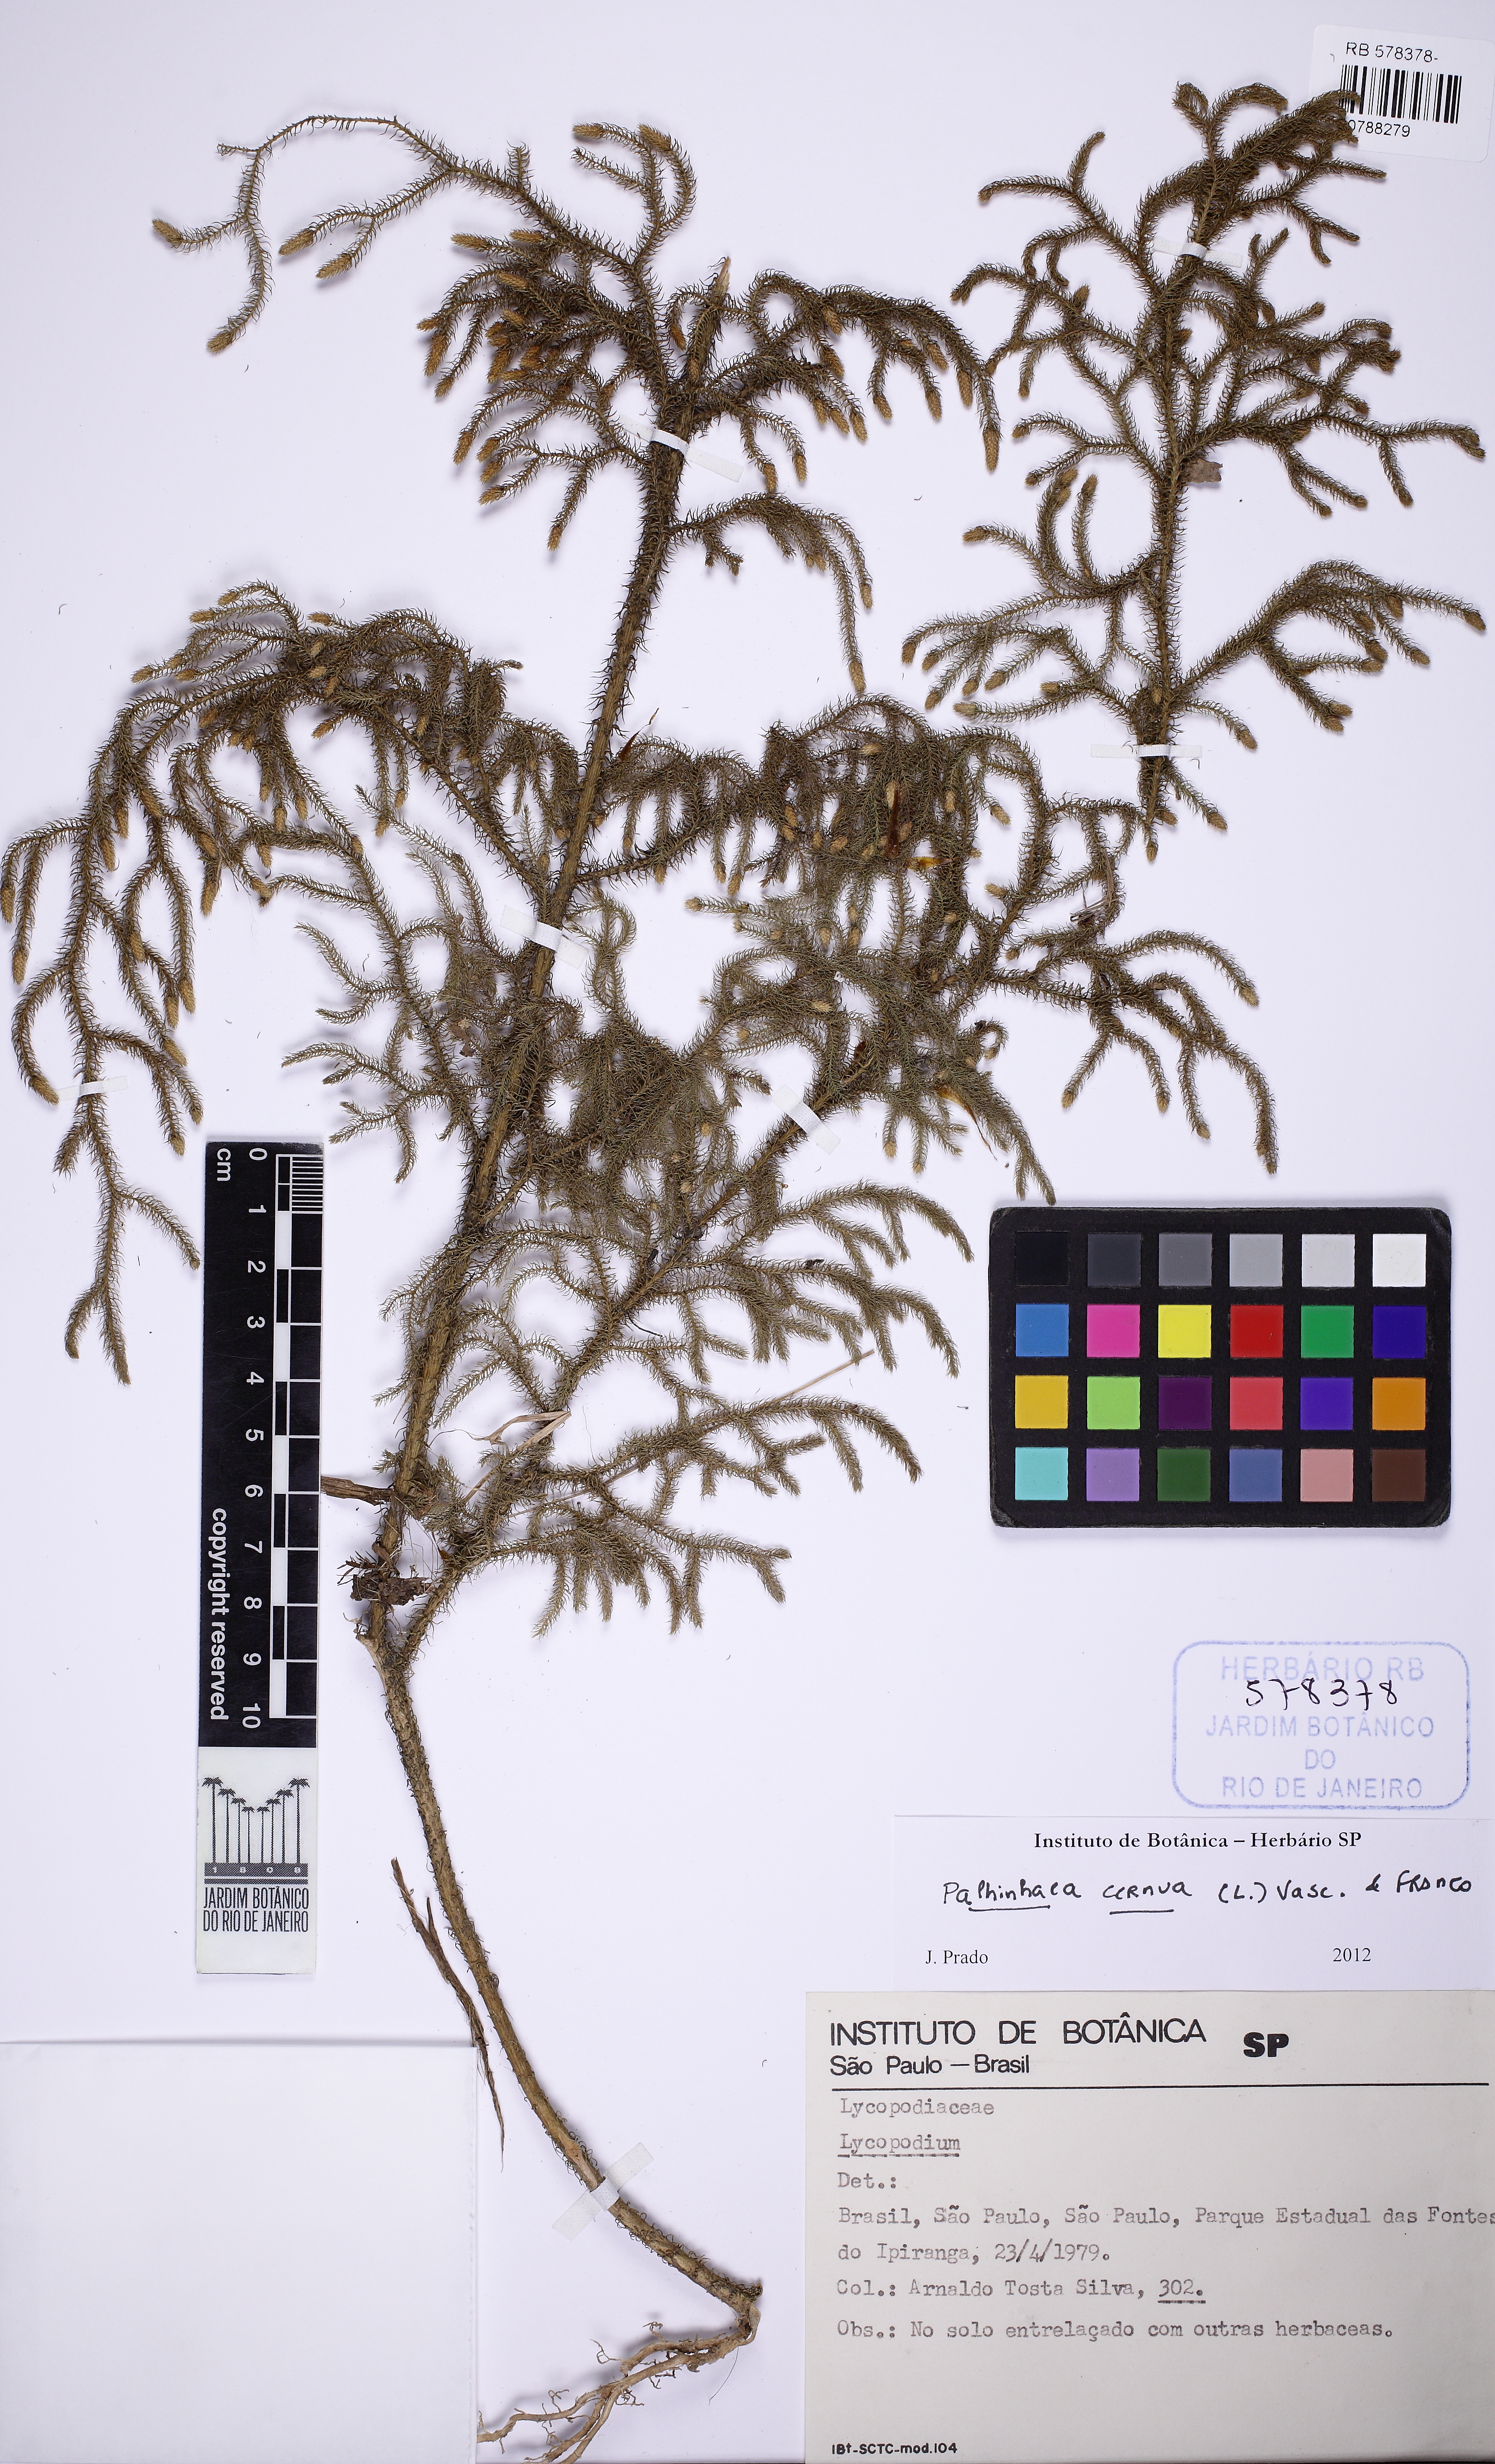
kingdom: Plantae
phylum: Tracheophyta
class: Lycopodiopsida
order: Lycopodiales
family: Lycopodiaceae
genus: Palhinhaea
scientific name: Palhinhaea cernua
